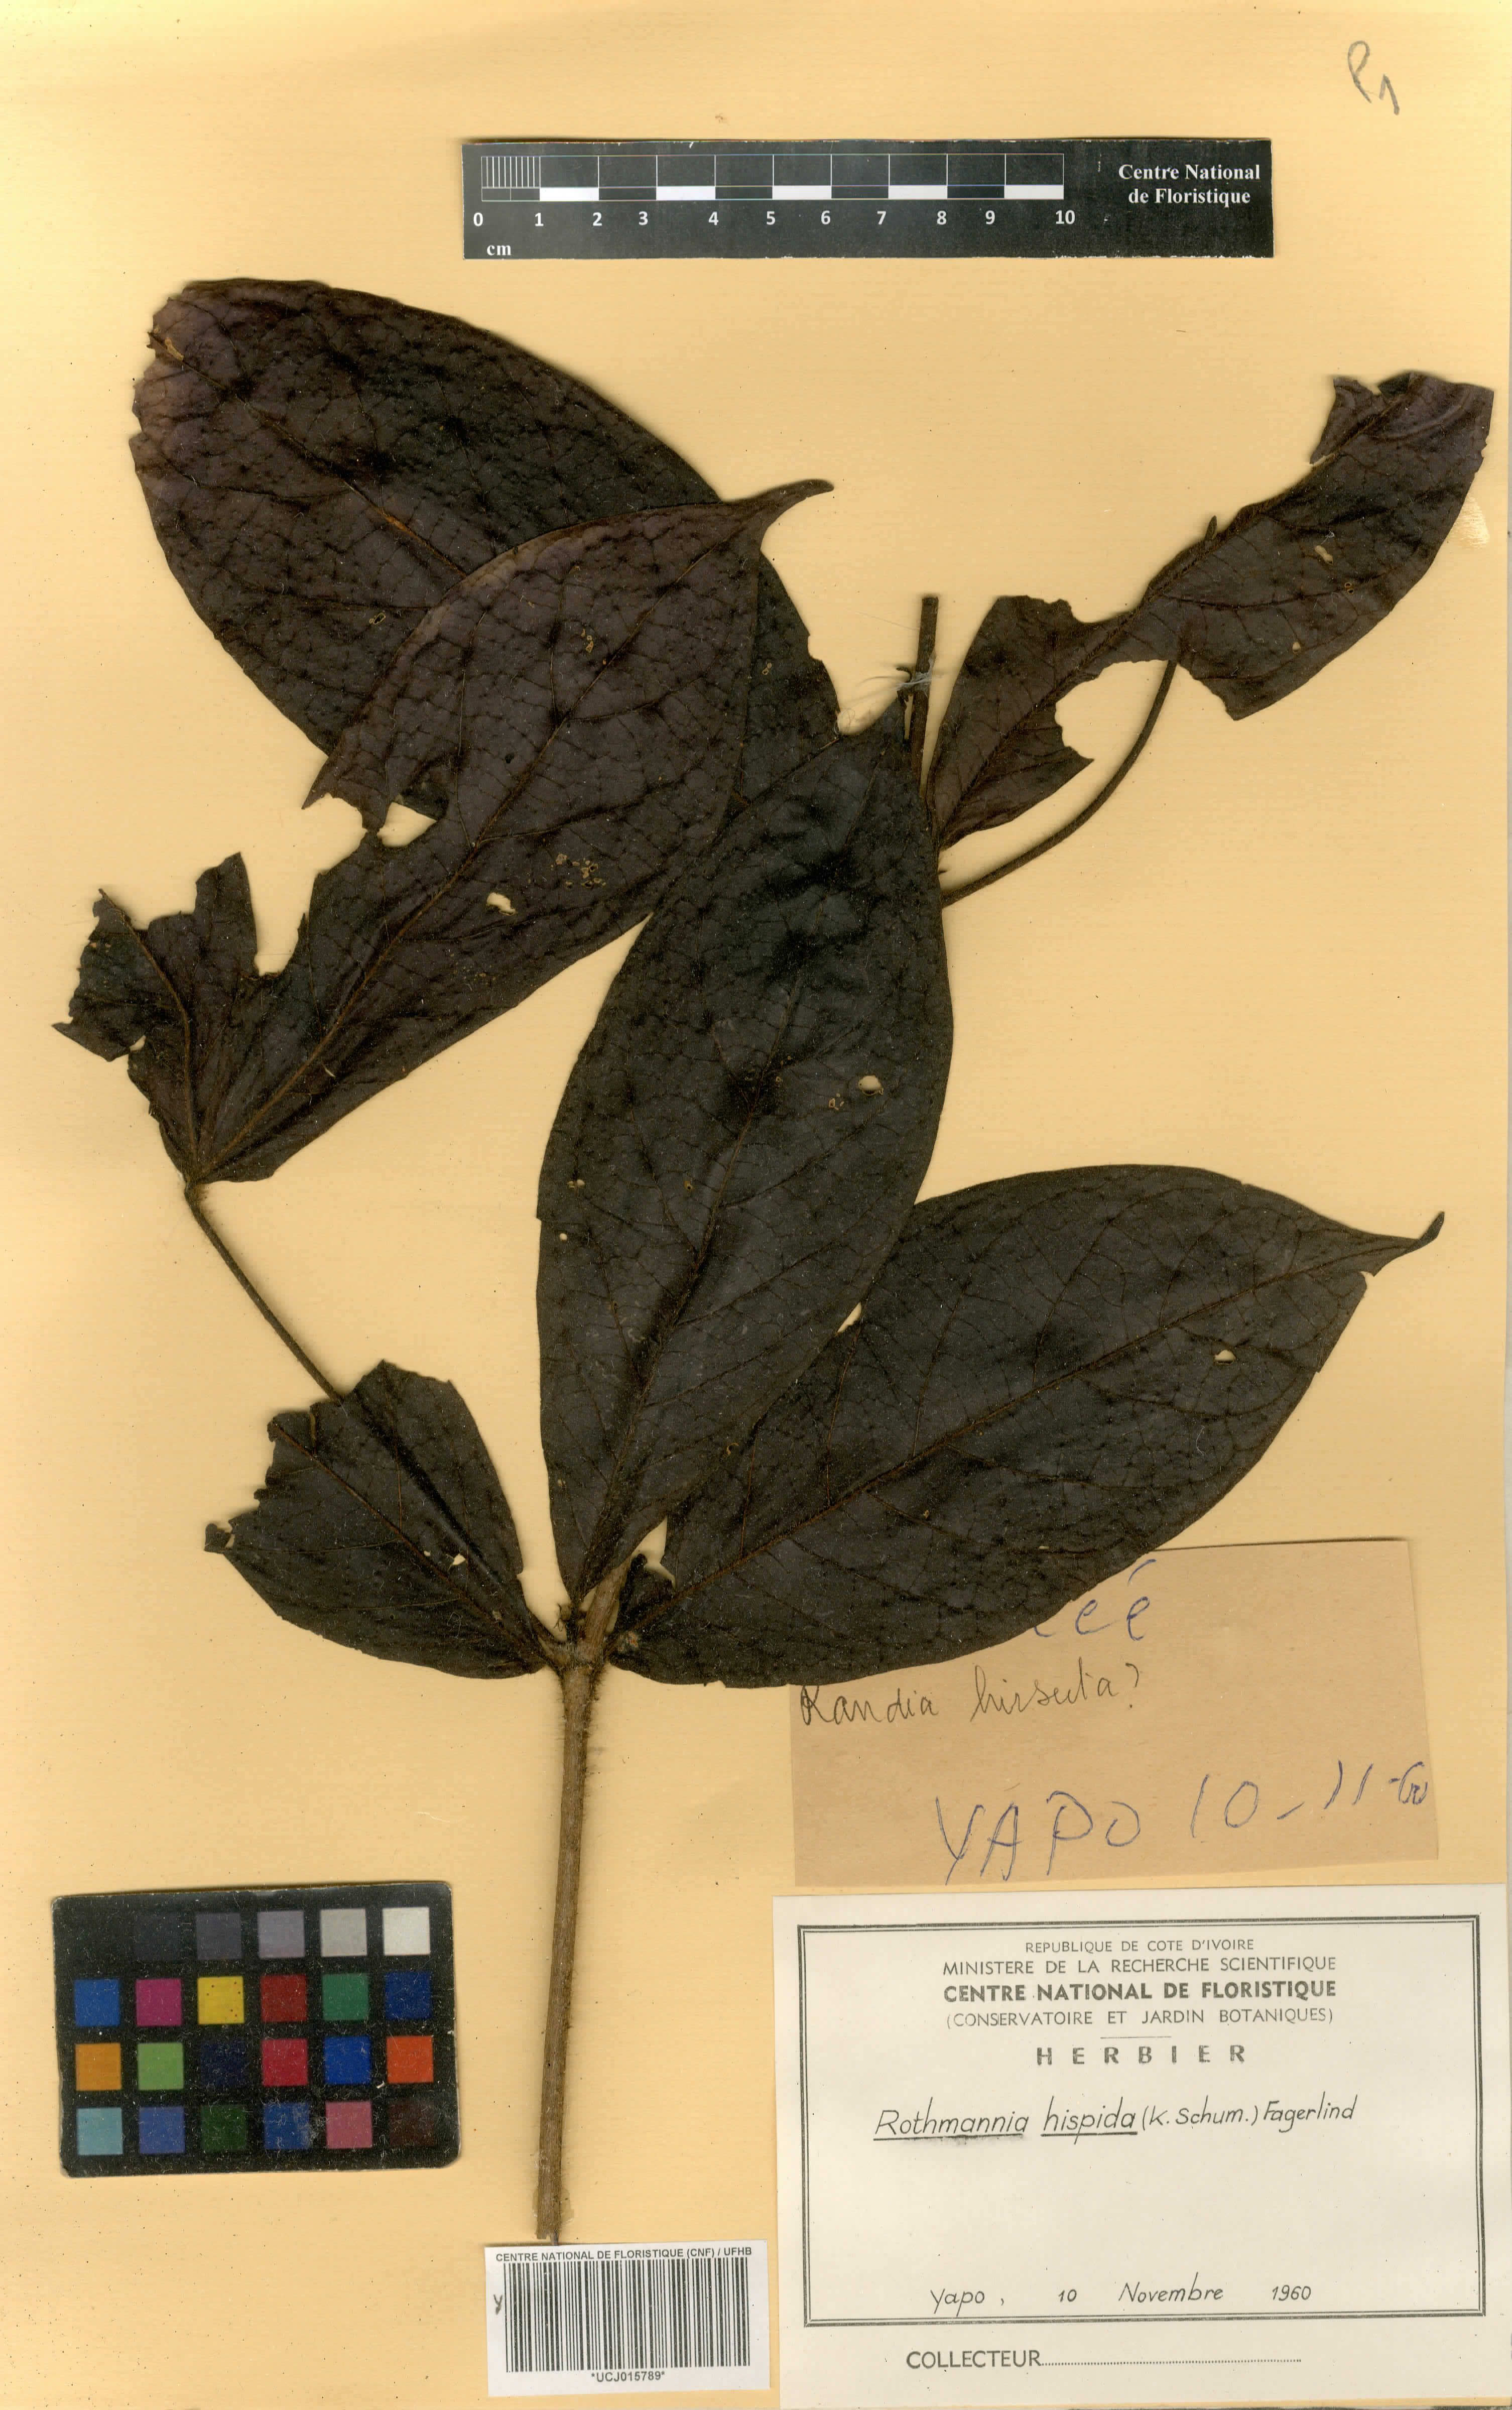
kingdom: Plantae
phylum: Tracheophyta
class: Magnoliopsida
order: Gentianales
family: Rubiaceae
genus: Rothmannia
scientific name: Rothmannia hispida
